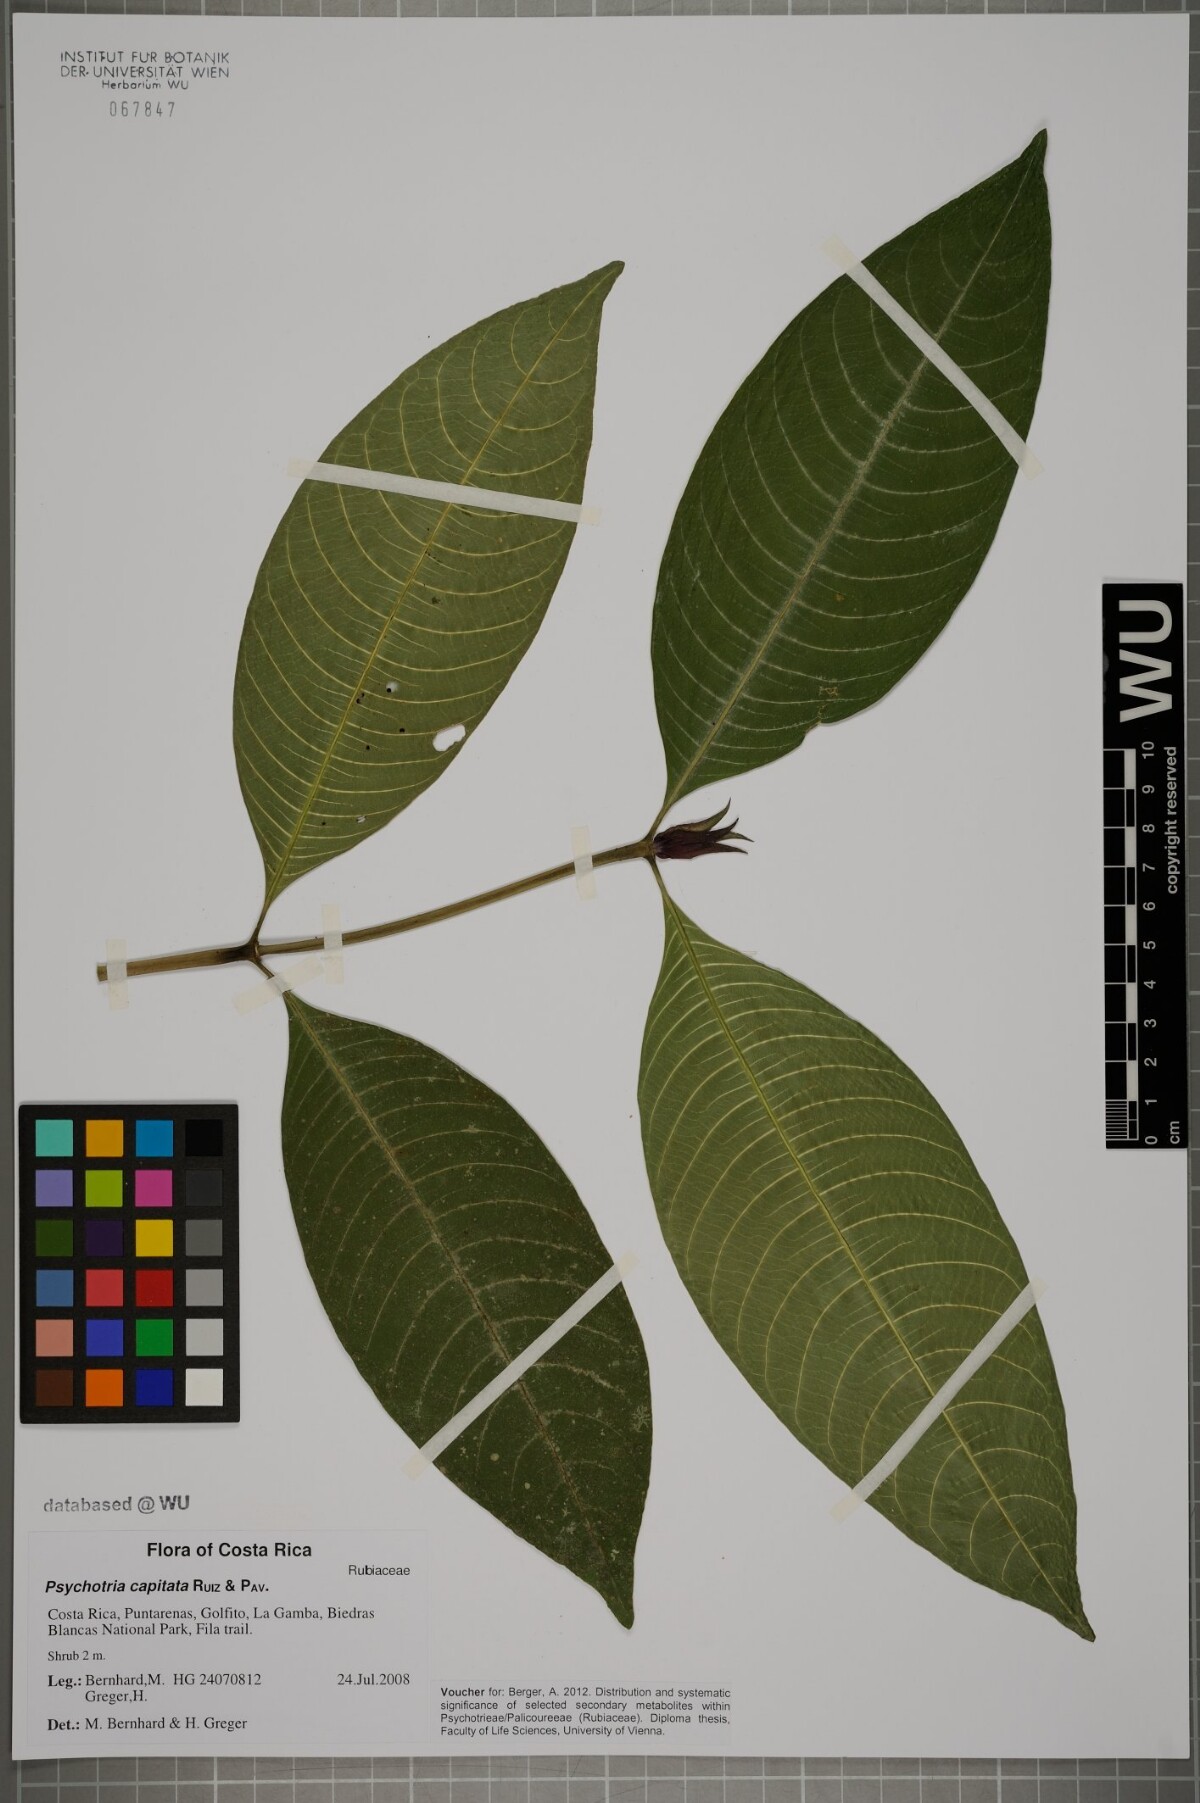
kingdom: Plantae
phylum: Tracheophyta
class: Magnoliopsida
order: Gentianales
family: Rubiaceae
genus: Palicourea
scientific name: Palicourea violacea
